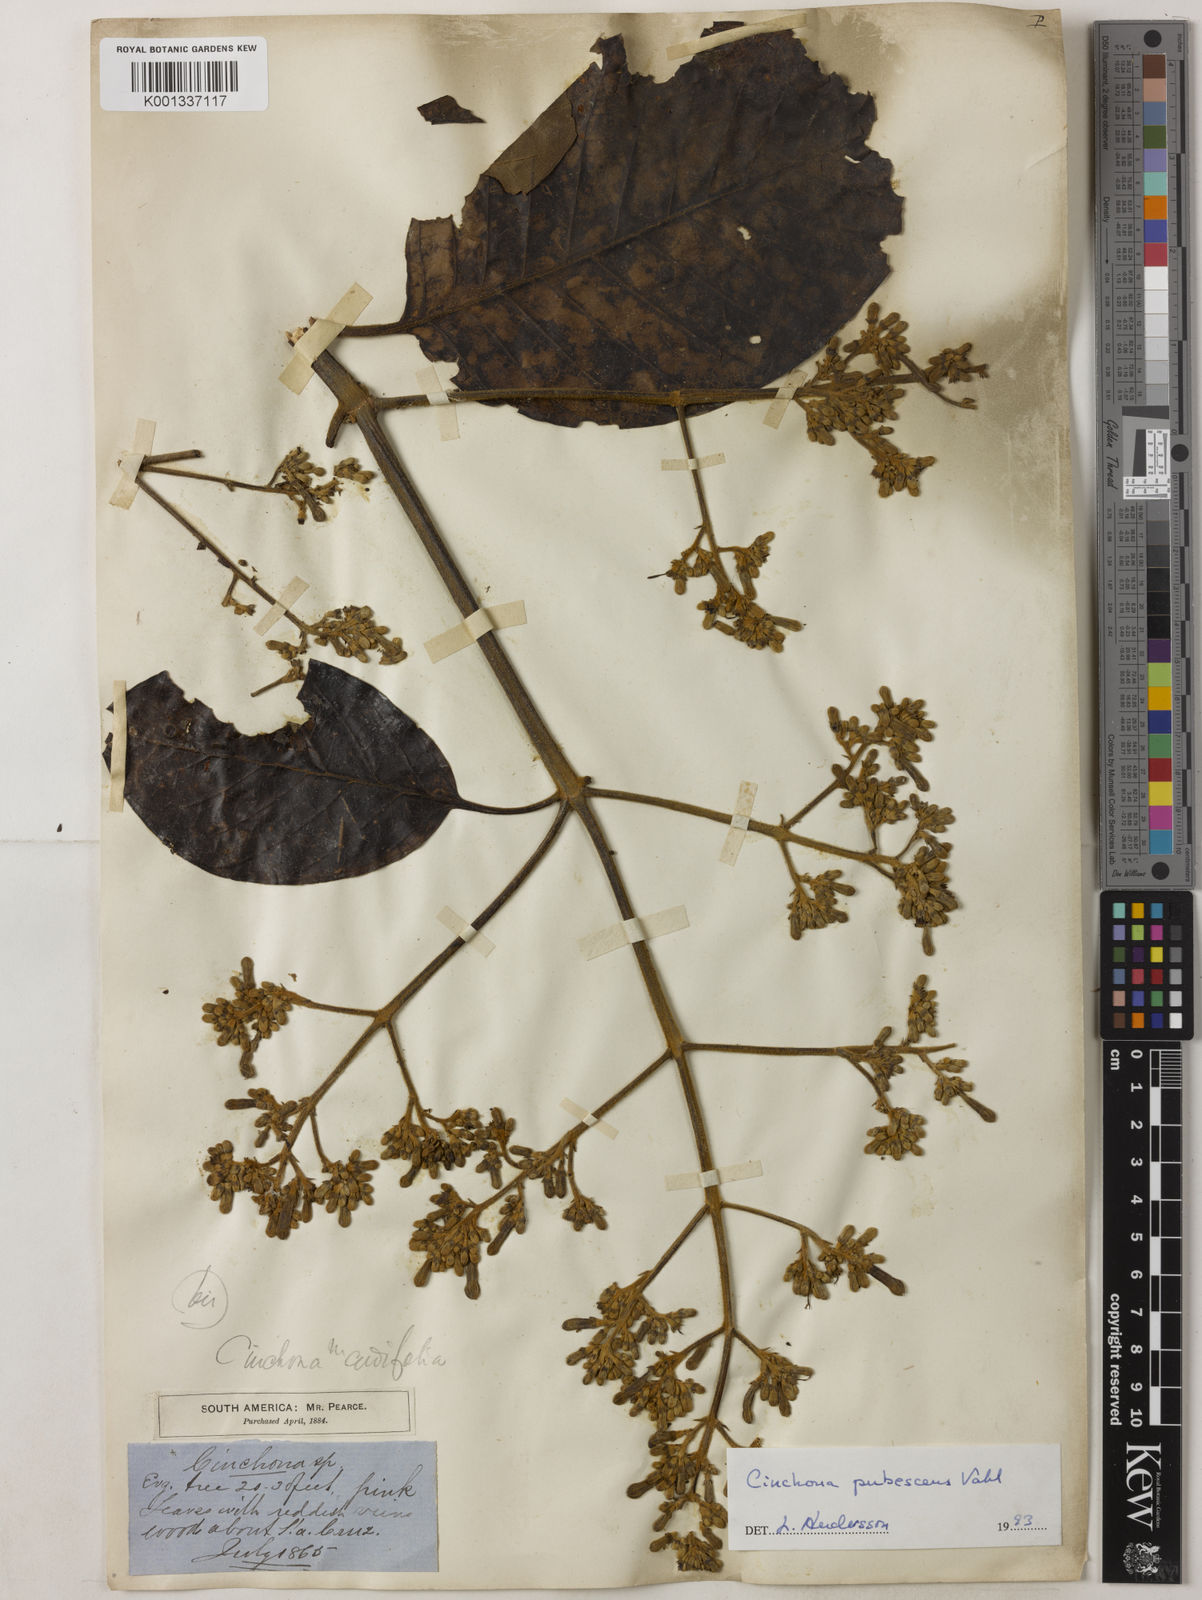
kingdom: Plantae
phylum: Tracheophyta
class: Magnoliopsida
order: Gentianales
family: Rubiaceae
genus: Cinchona
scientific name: Cinchona pubescens
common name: Quinine
